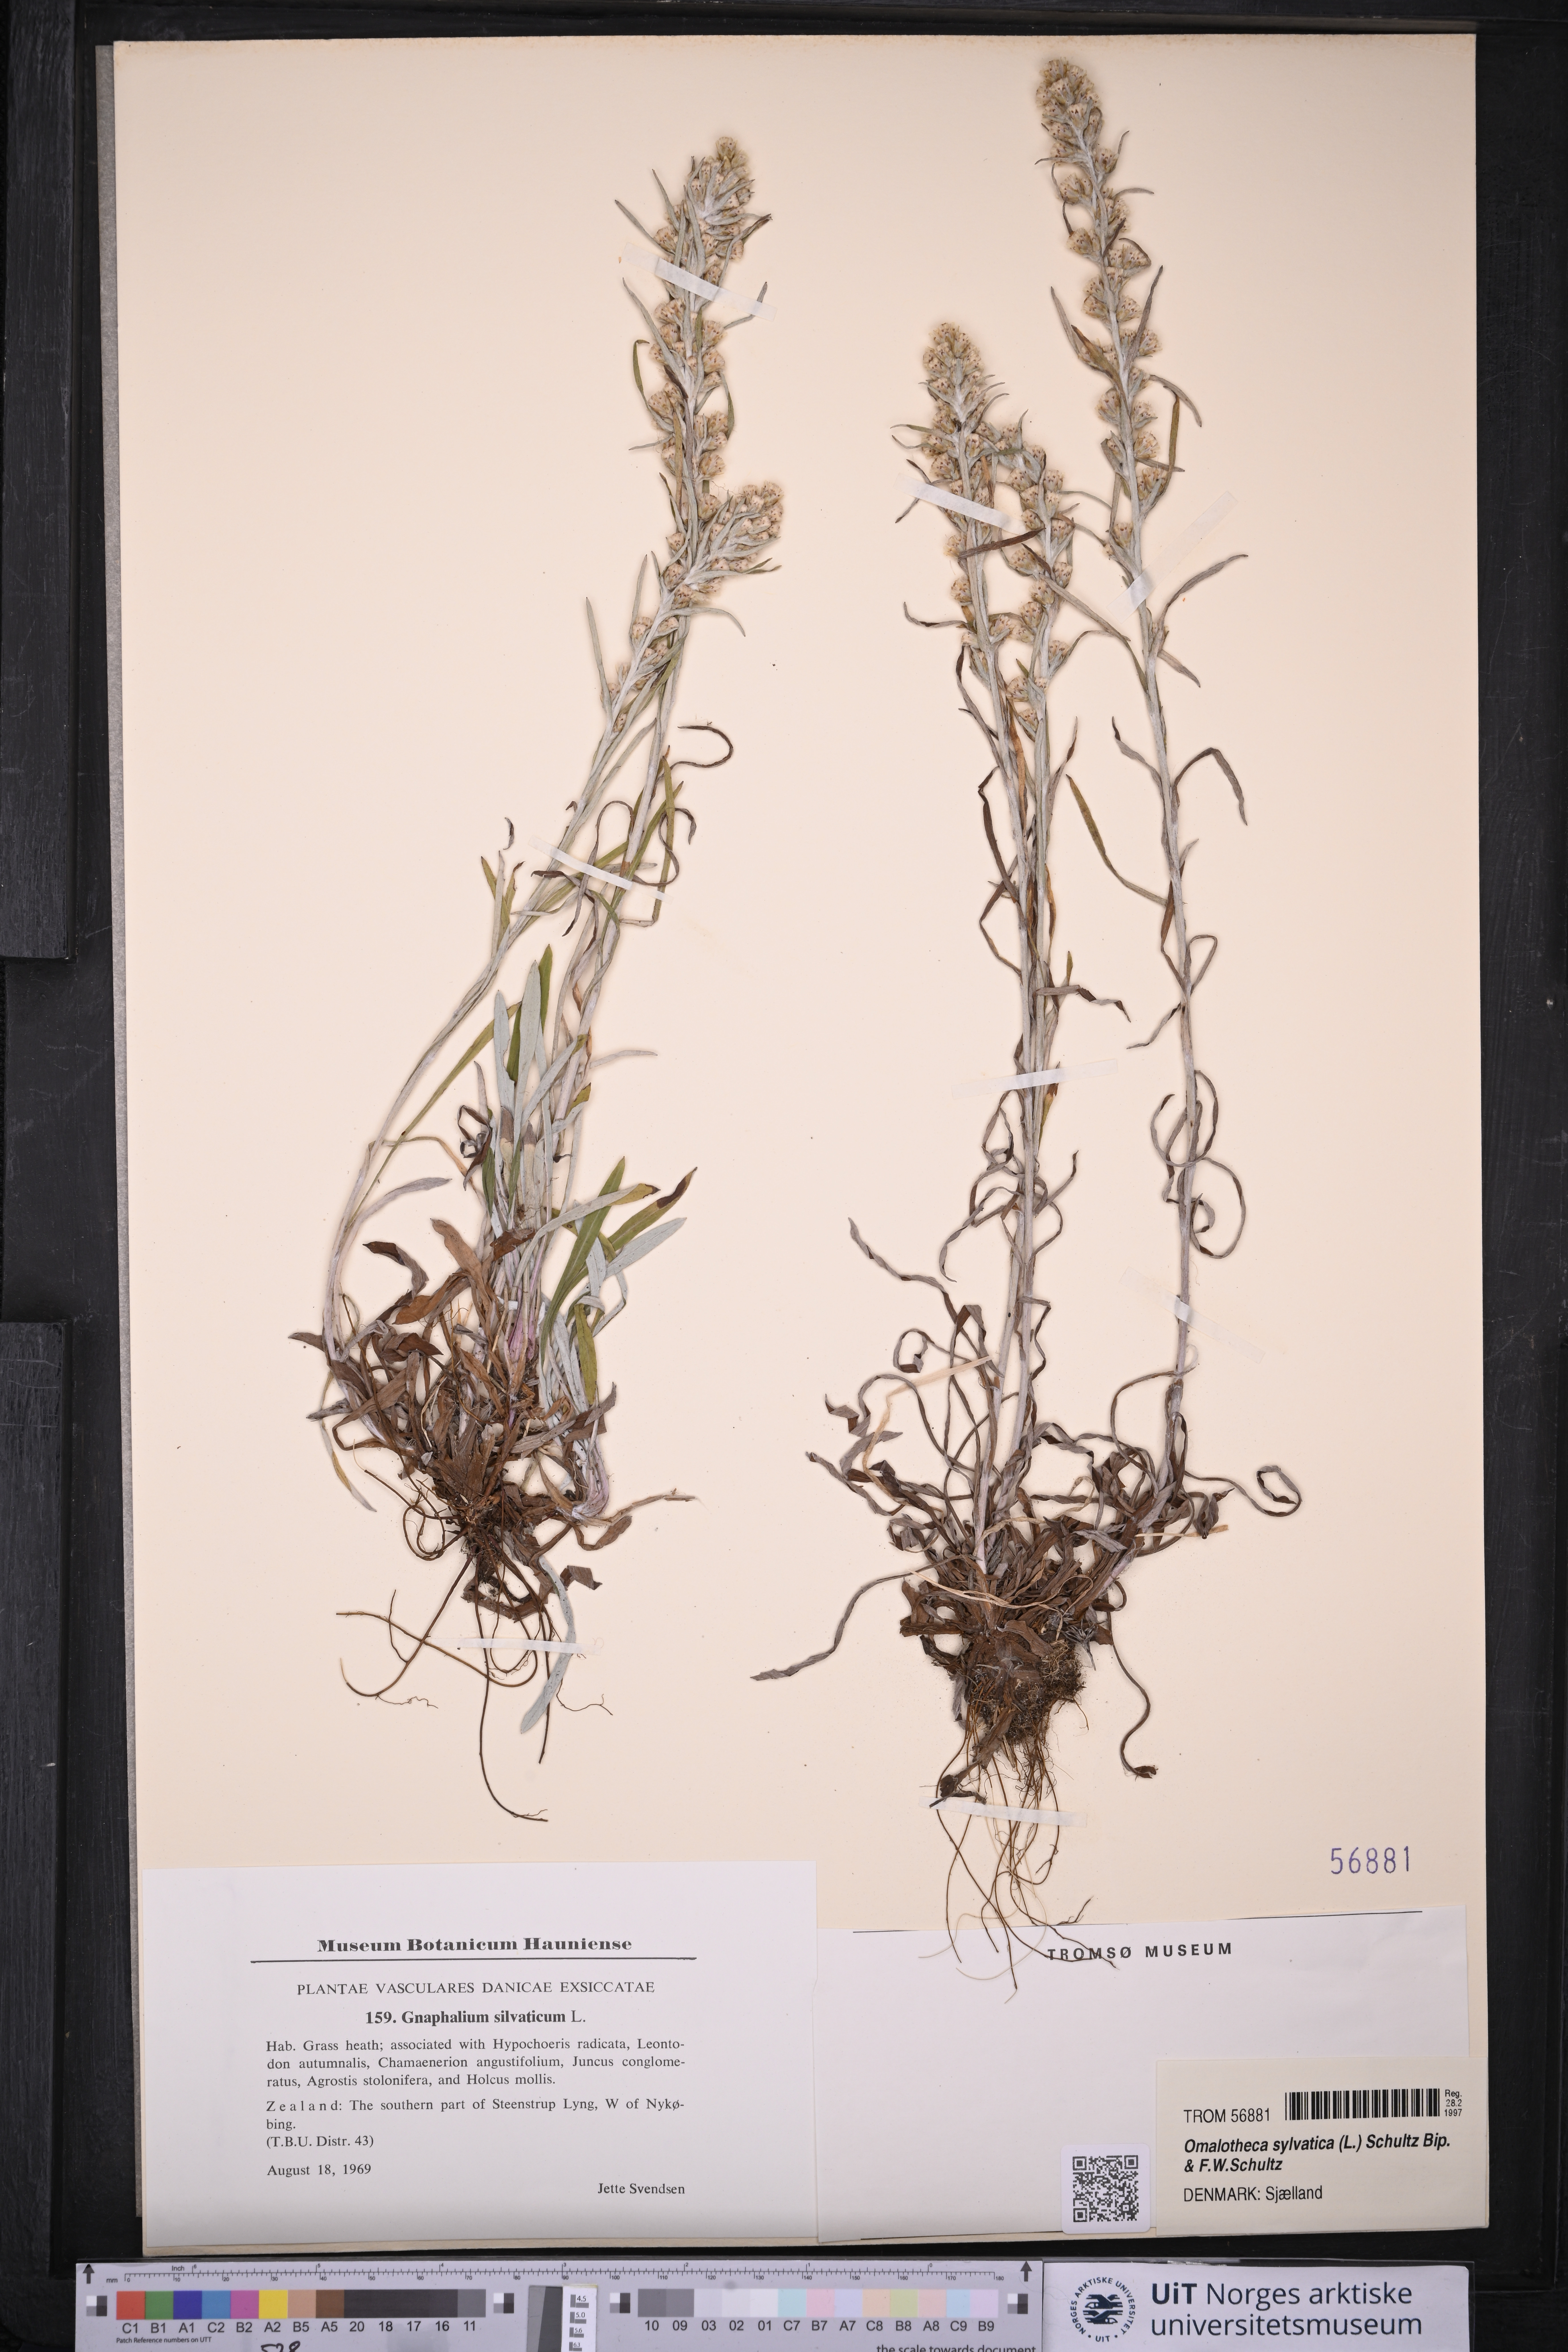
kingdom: Plantae
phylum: Tracheophyta
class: Magnoliopsida
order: Asterales
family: Asteraceae
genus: Omalotheca
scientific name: Omalotheca sylvatica
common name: Heath cudweed
